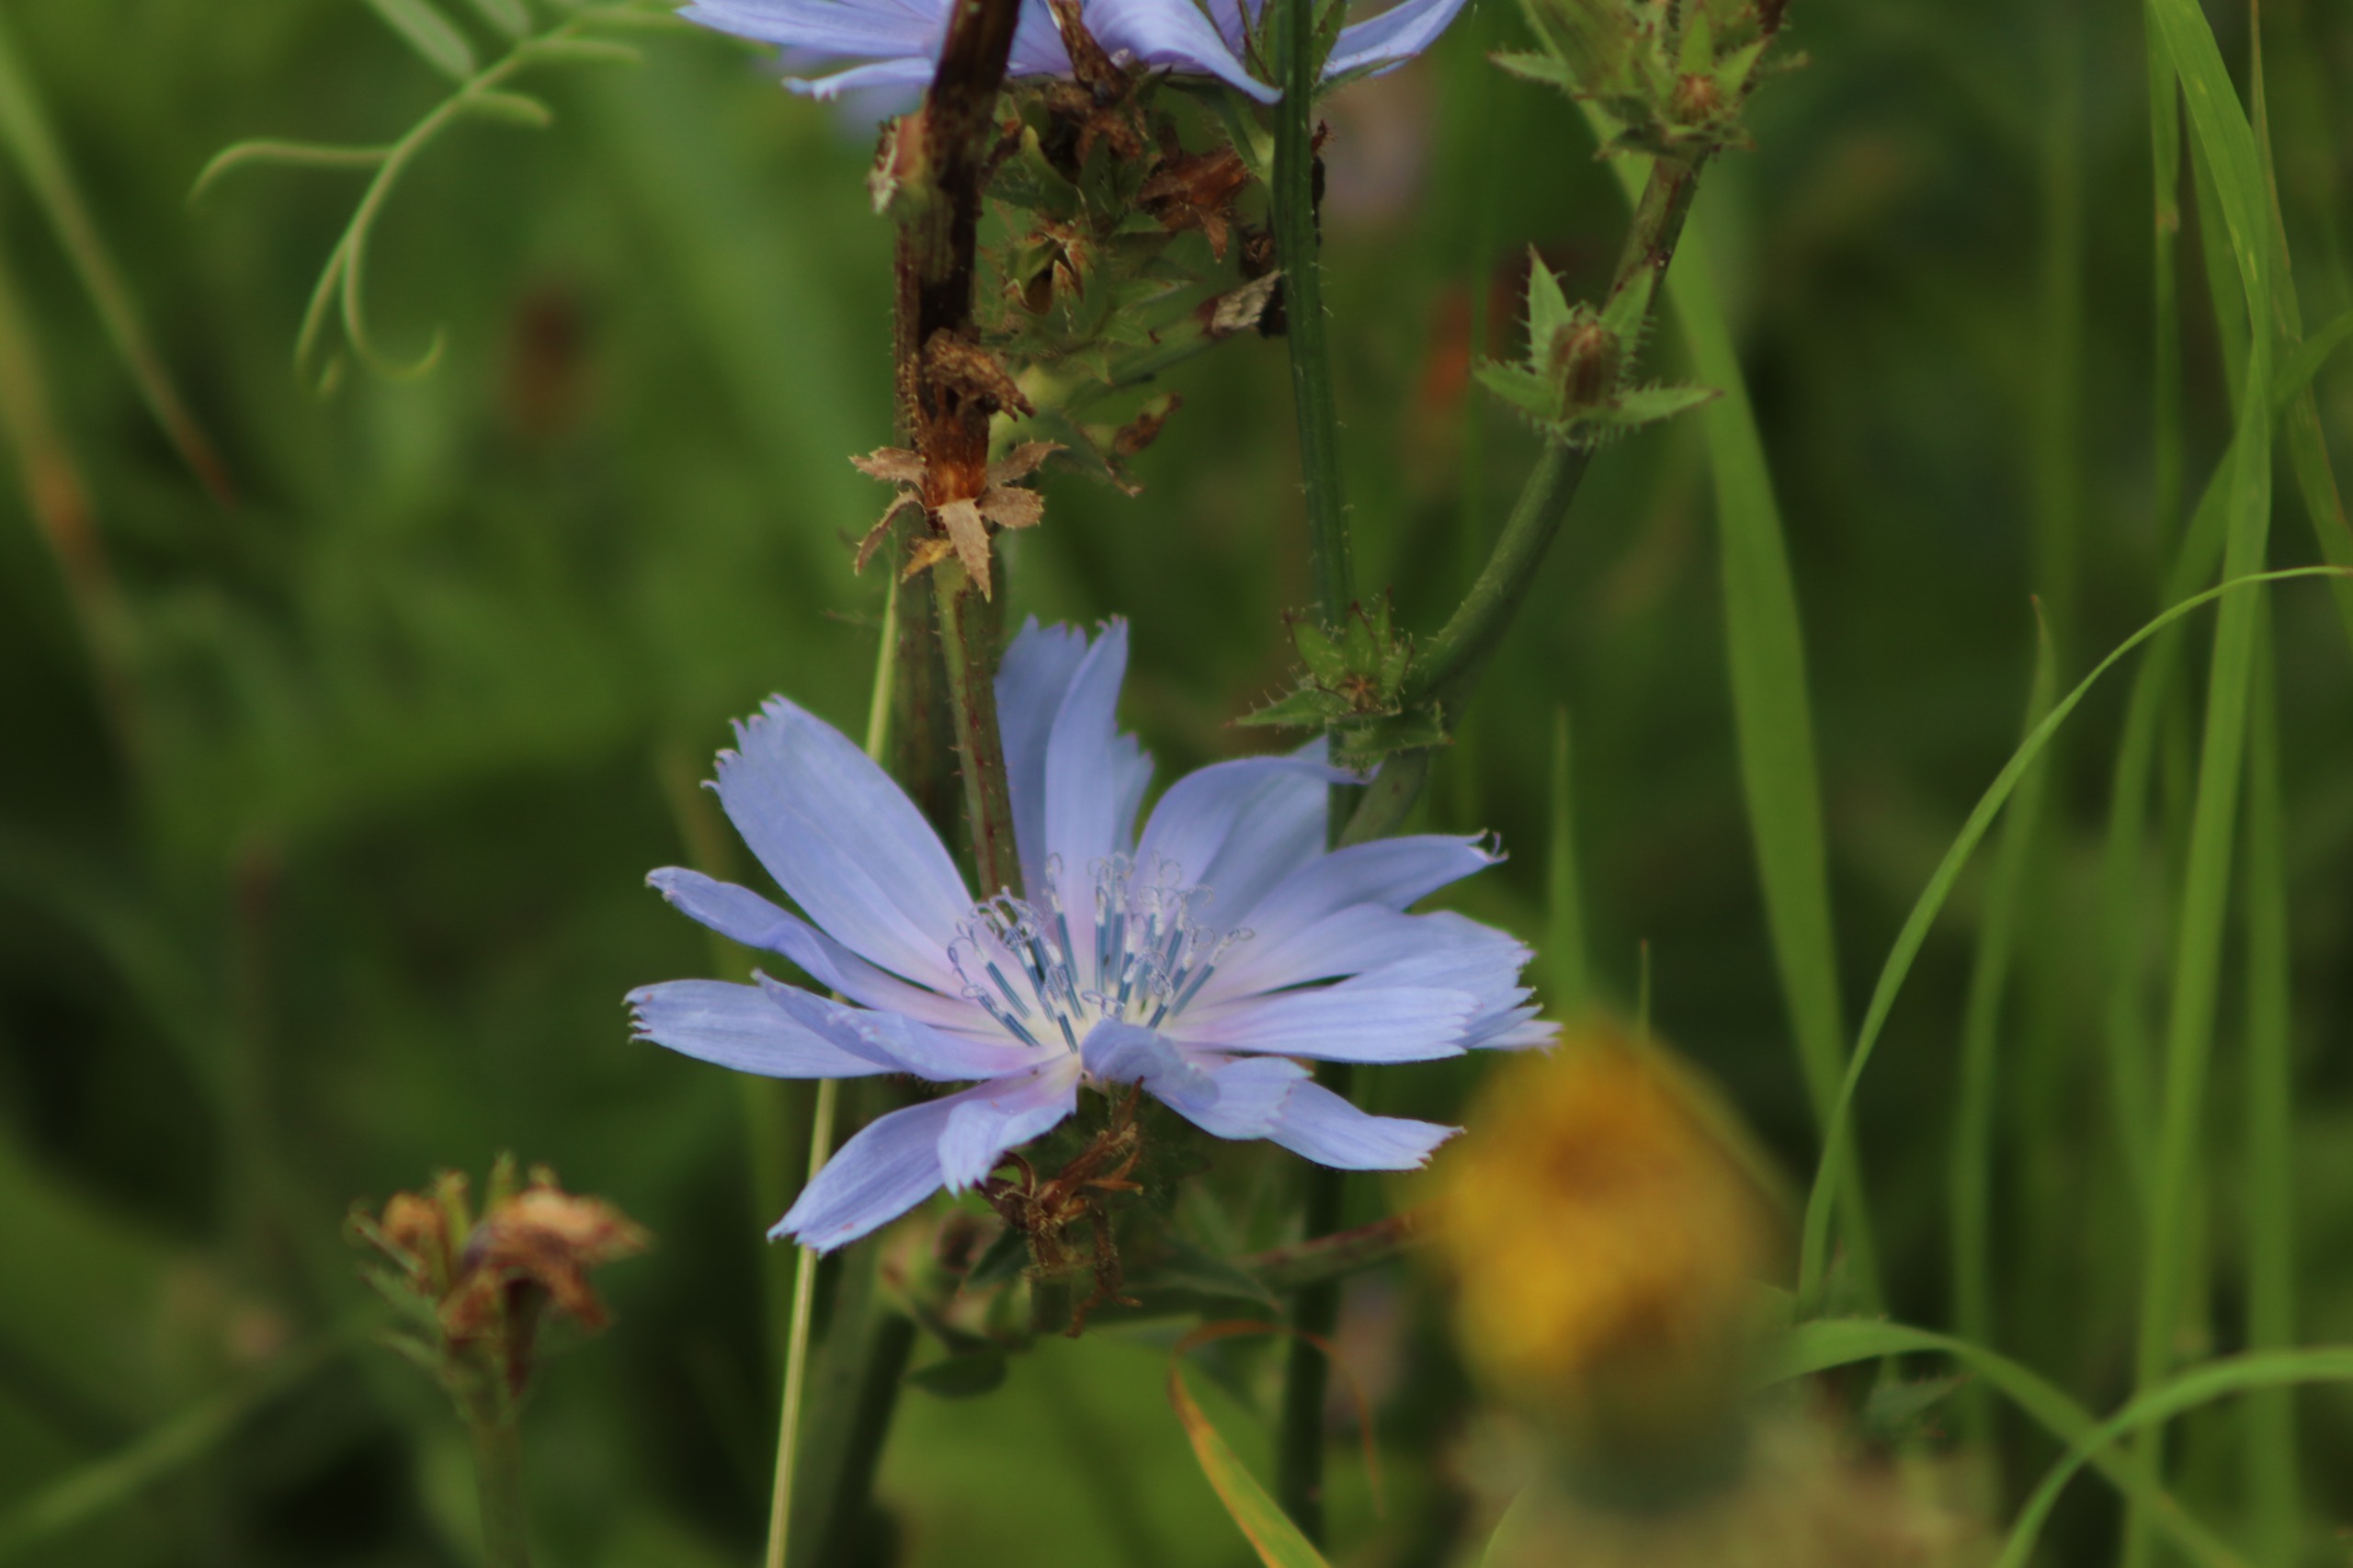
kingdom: Plantae
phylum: Tracheophyta
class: Magnoliopsida
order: Asterales
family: Asteraceae
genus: Cichorium
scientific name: Cichorium intybus
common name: Cikorie
